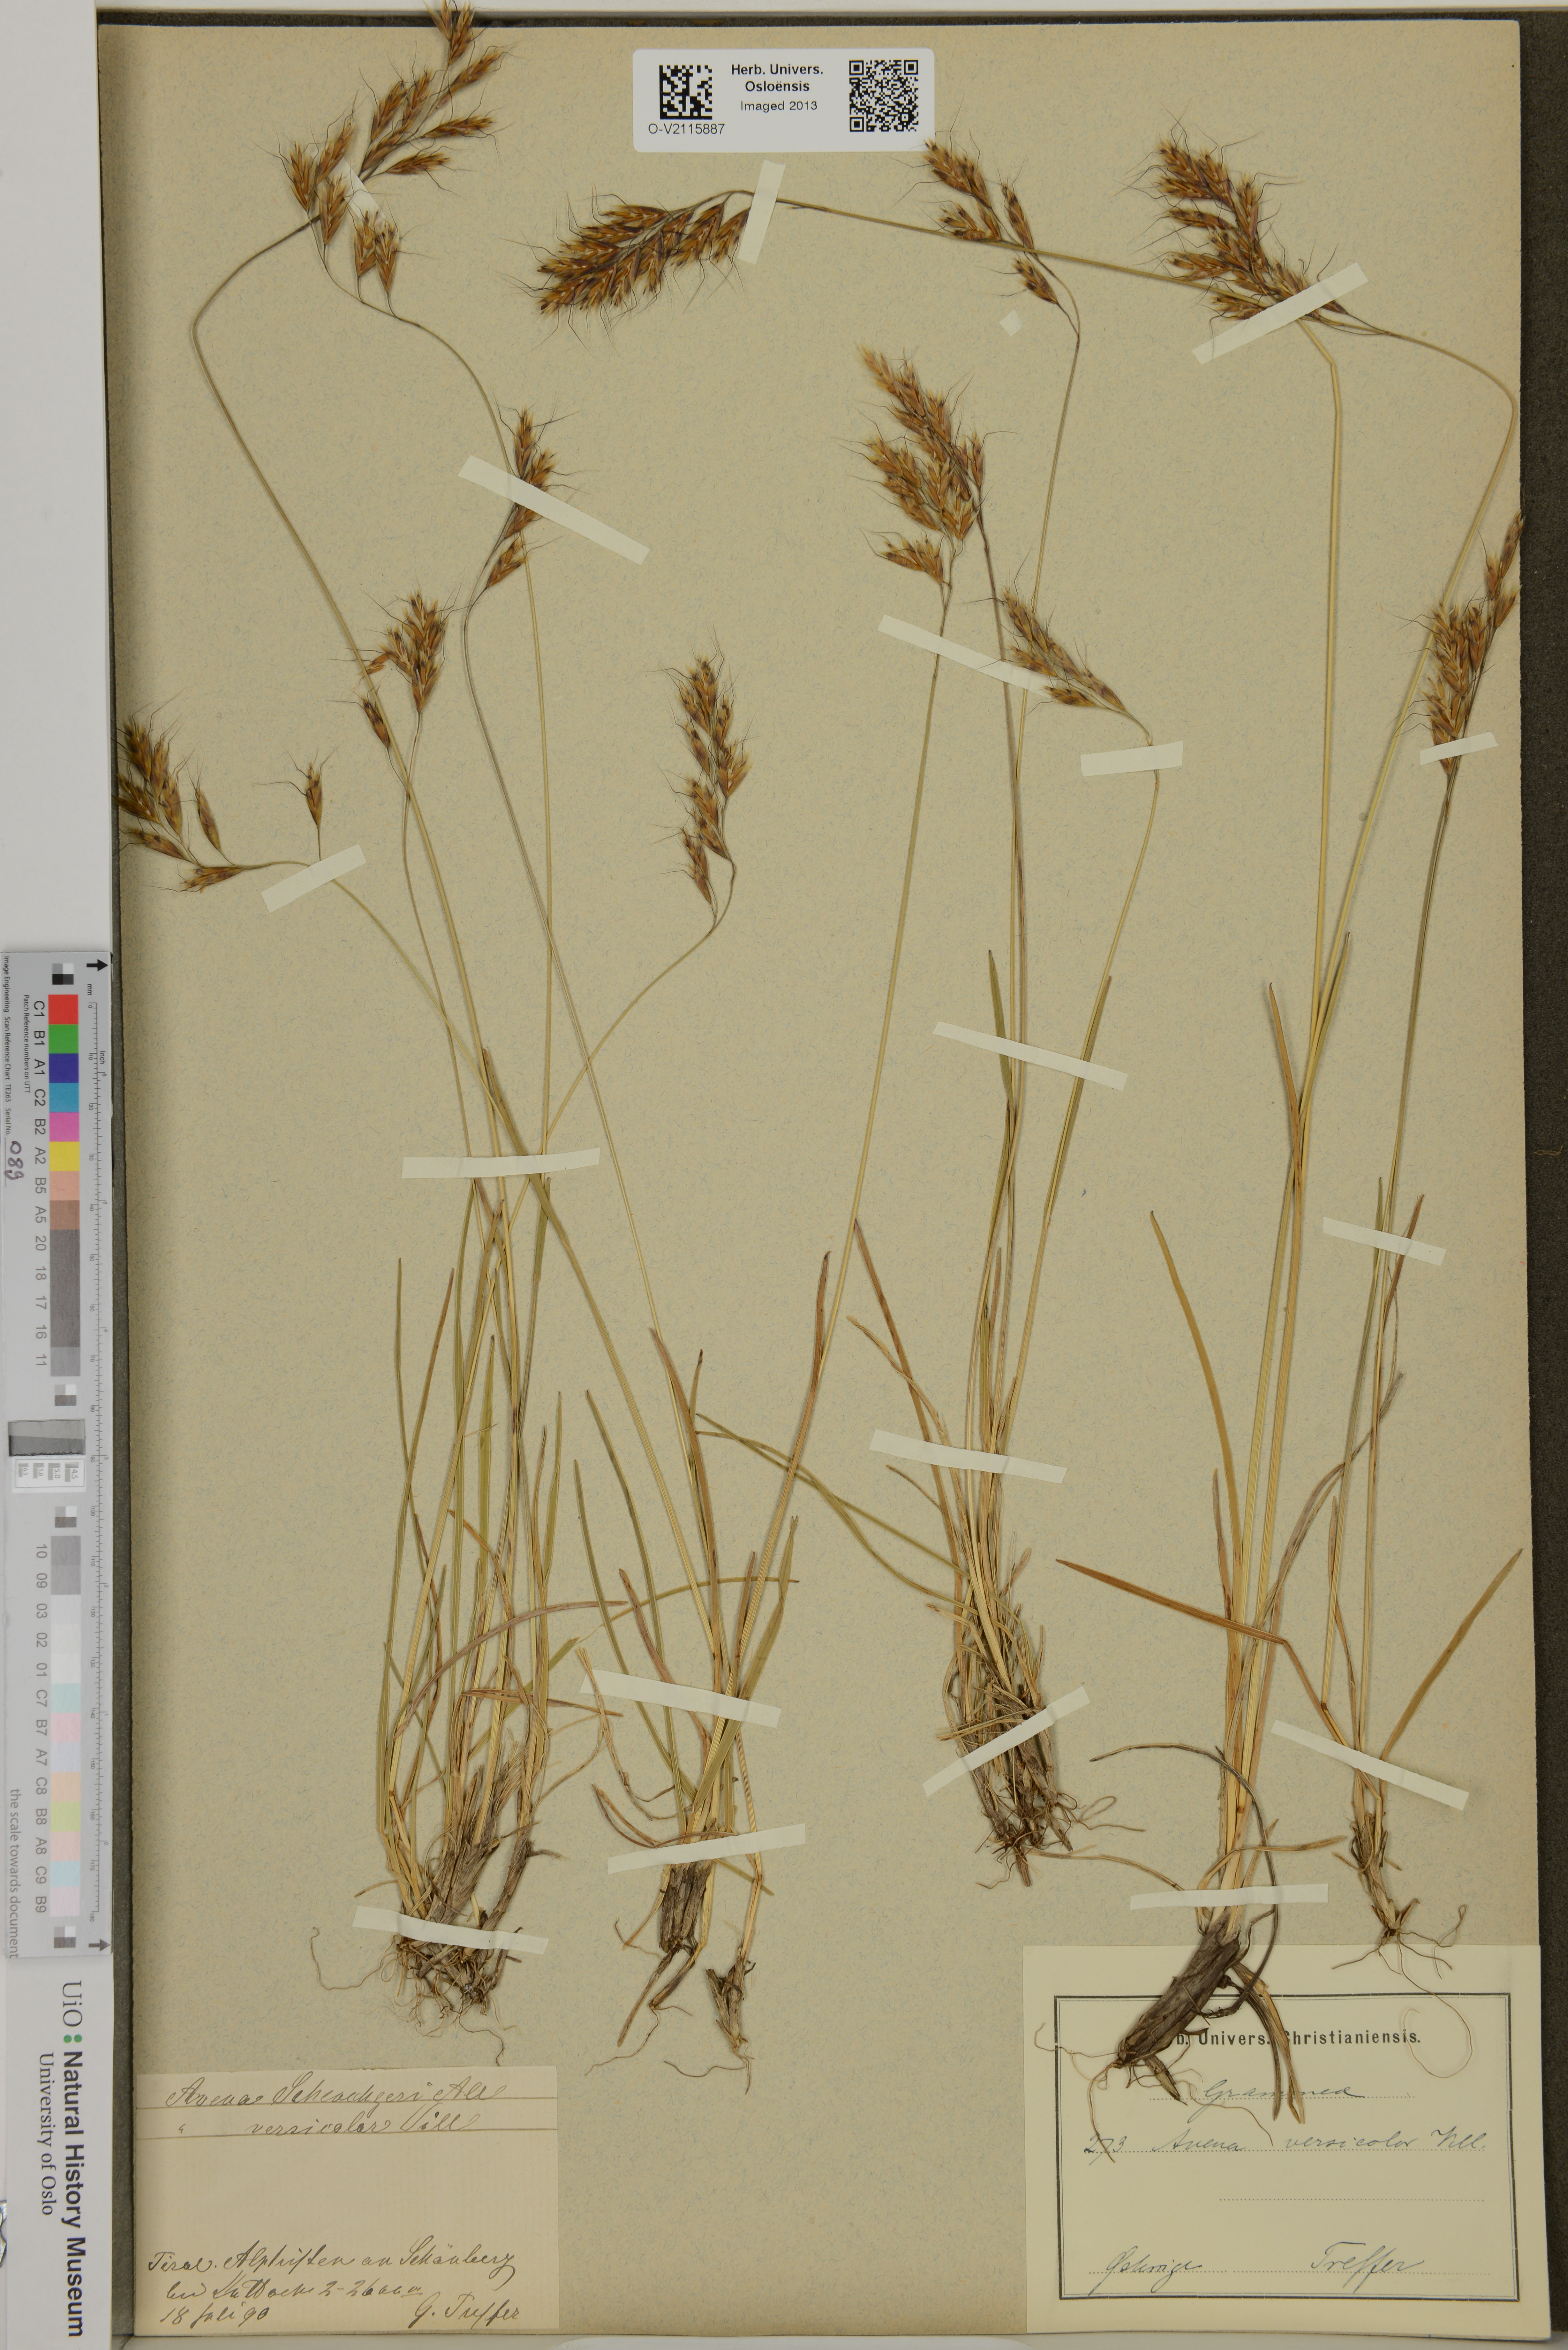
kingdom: Plantae
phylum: Tracheophyta
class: Liliopsida
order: Poales
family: Poaceae
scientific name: Poaceae
